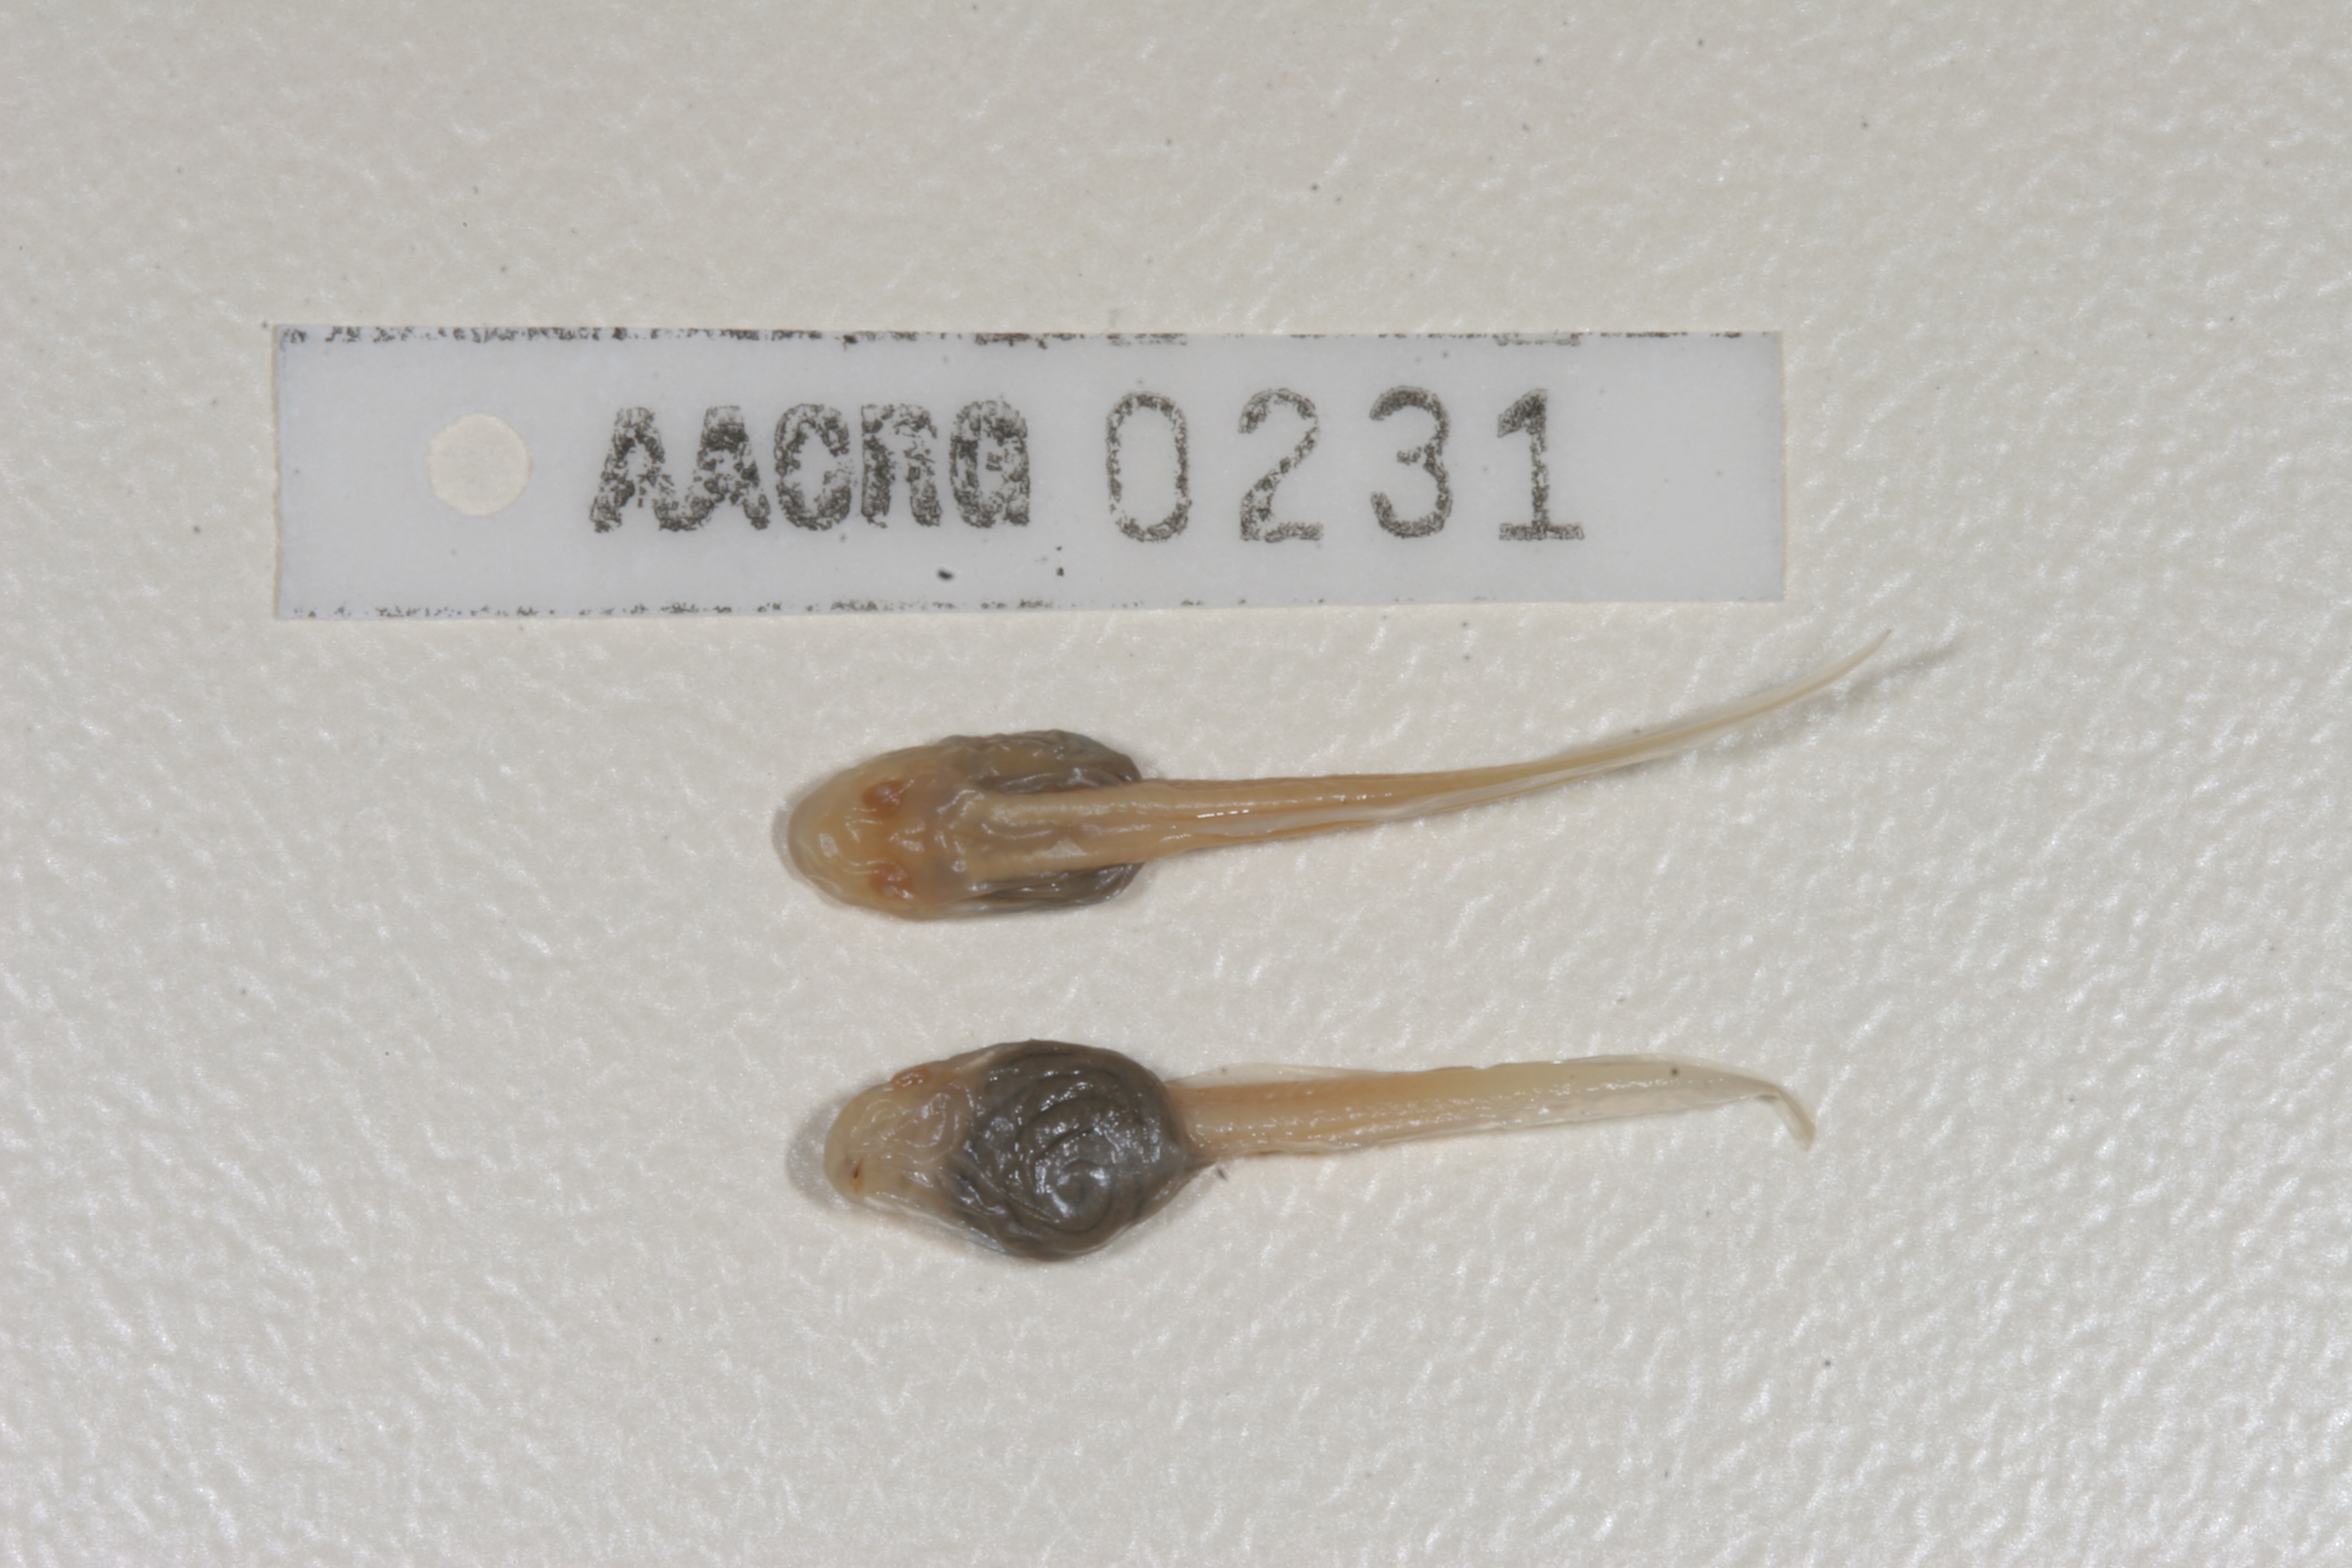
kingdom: Animalia
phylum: Chordata
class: Amphibia
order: Anura
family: Pyxicephalidae
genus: Amietia
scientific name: Amietia angolensis
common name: Dusky-throated frog
